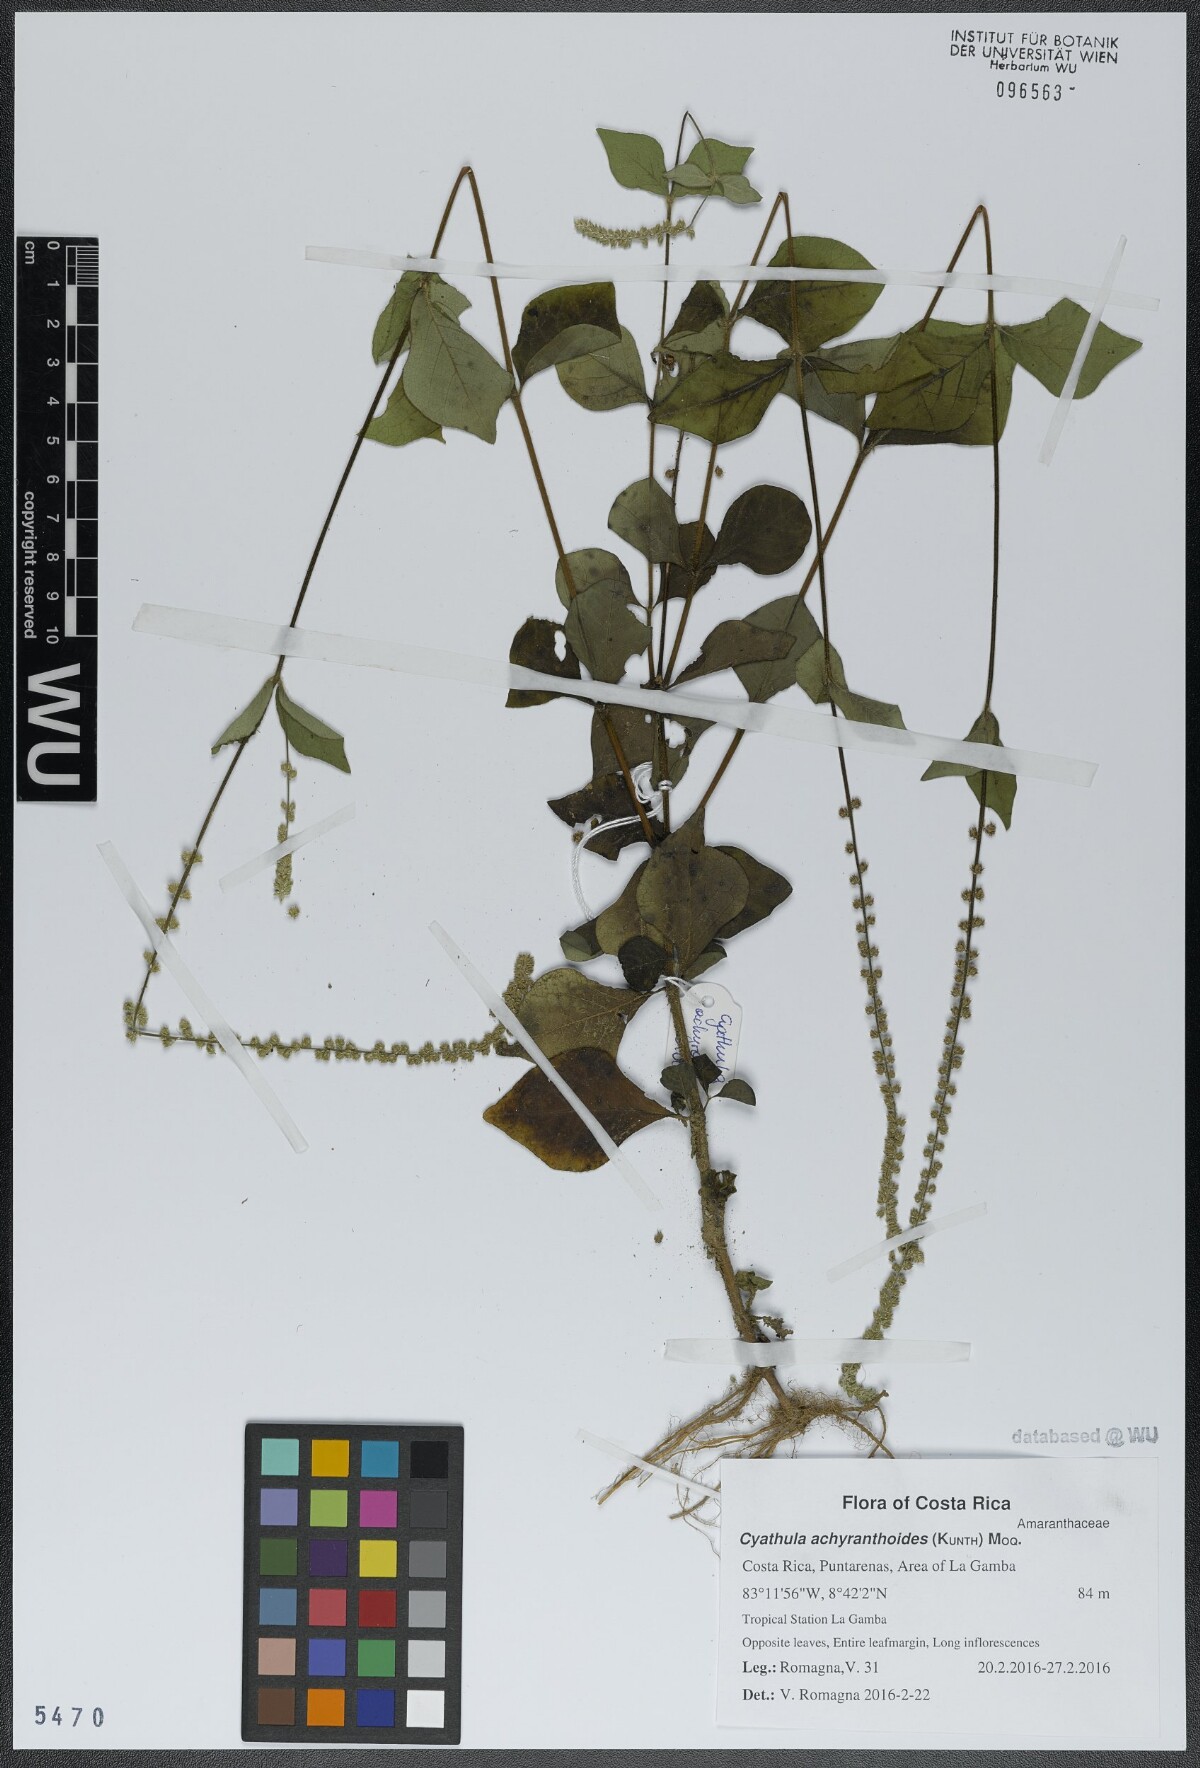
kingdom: Plantae
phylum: Tracheophyta
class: Magnoliopsida
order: Caryophyllales
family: Amaranthaceae
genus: Cyathula
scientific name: Cyathula achyranthoides
